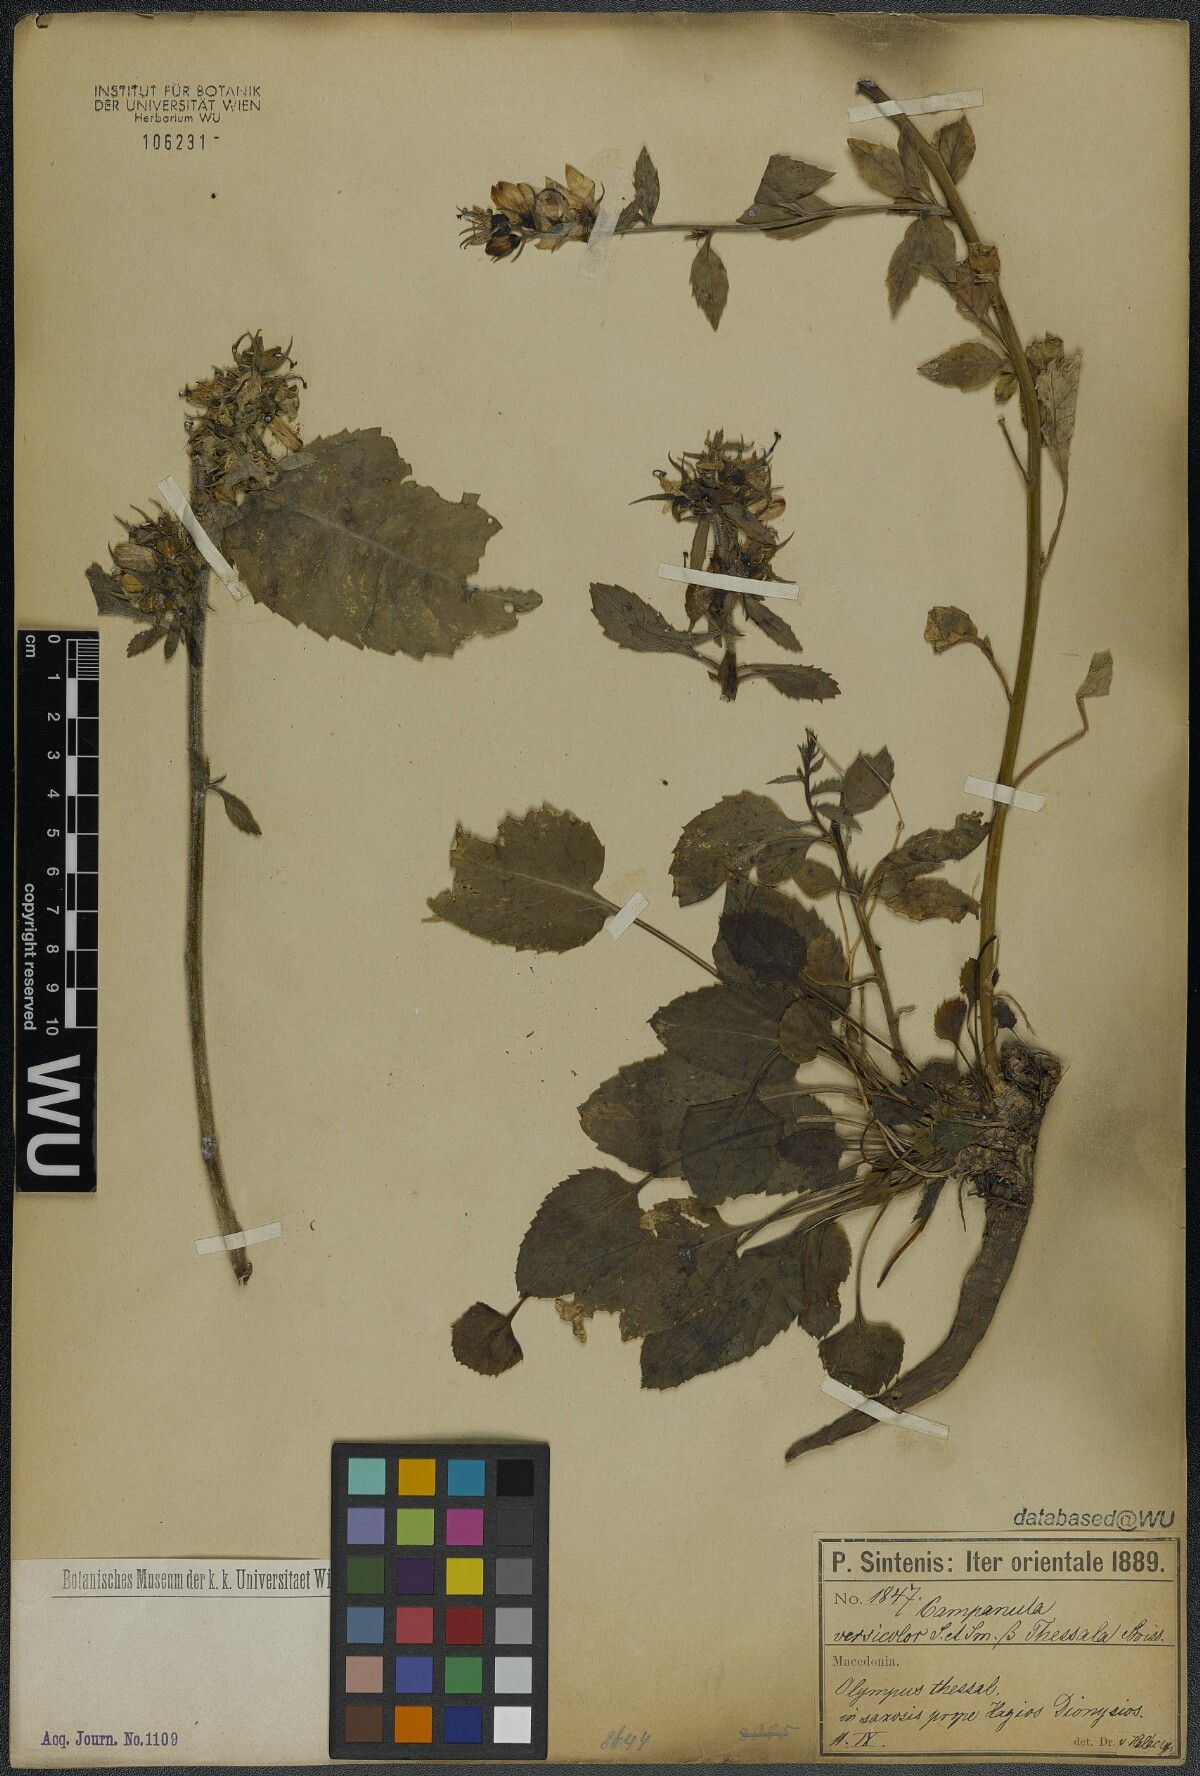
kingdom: Plantae
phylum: Tracheophyta
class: Magnoliopsida
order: Asterales
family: Campanulaceae
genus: Campanula
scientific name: Campanula versicolor
